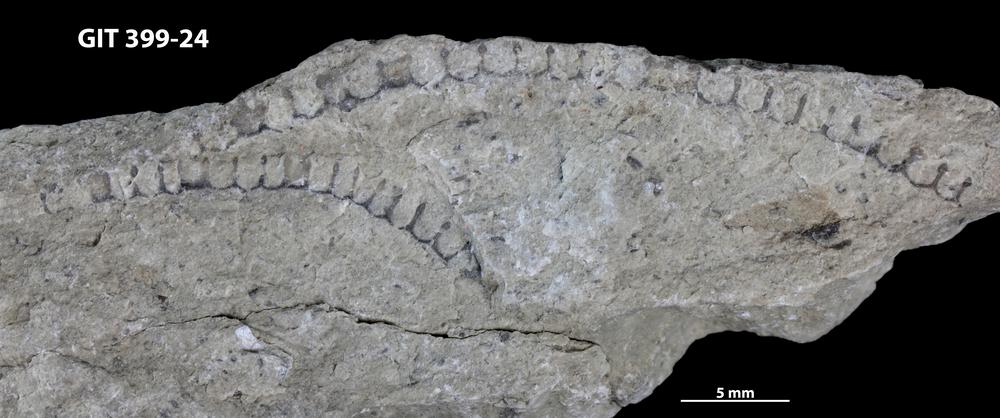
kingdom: Plantae
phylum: Chlorophyta
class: Ulvophyceae
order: Cyclocrinales
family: Cyclocrinaceae
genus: Mastopora
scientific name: Mastopora concava
